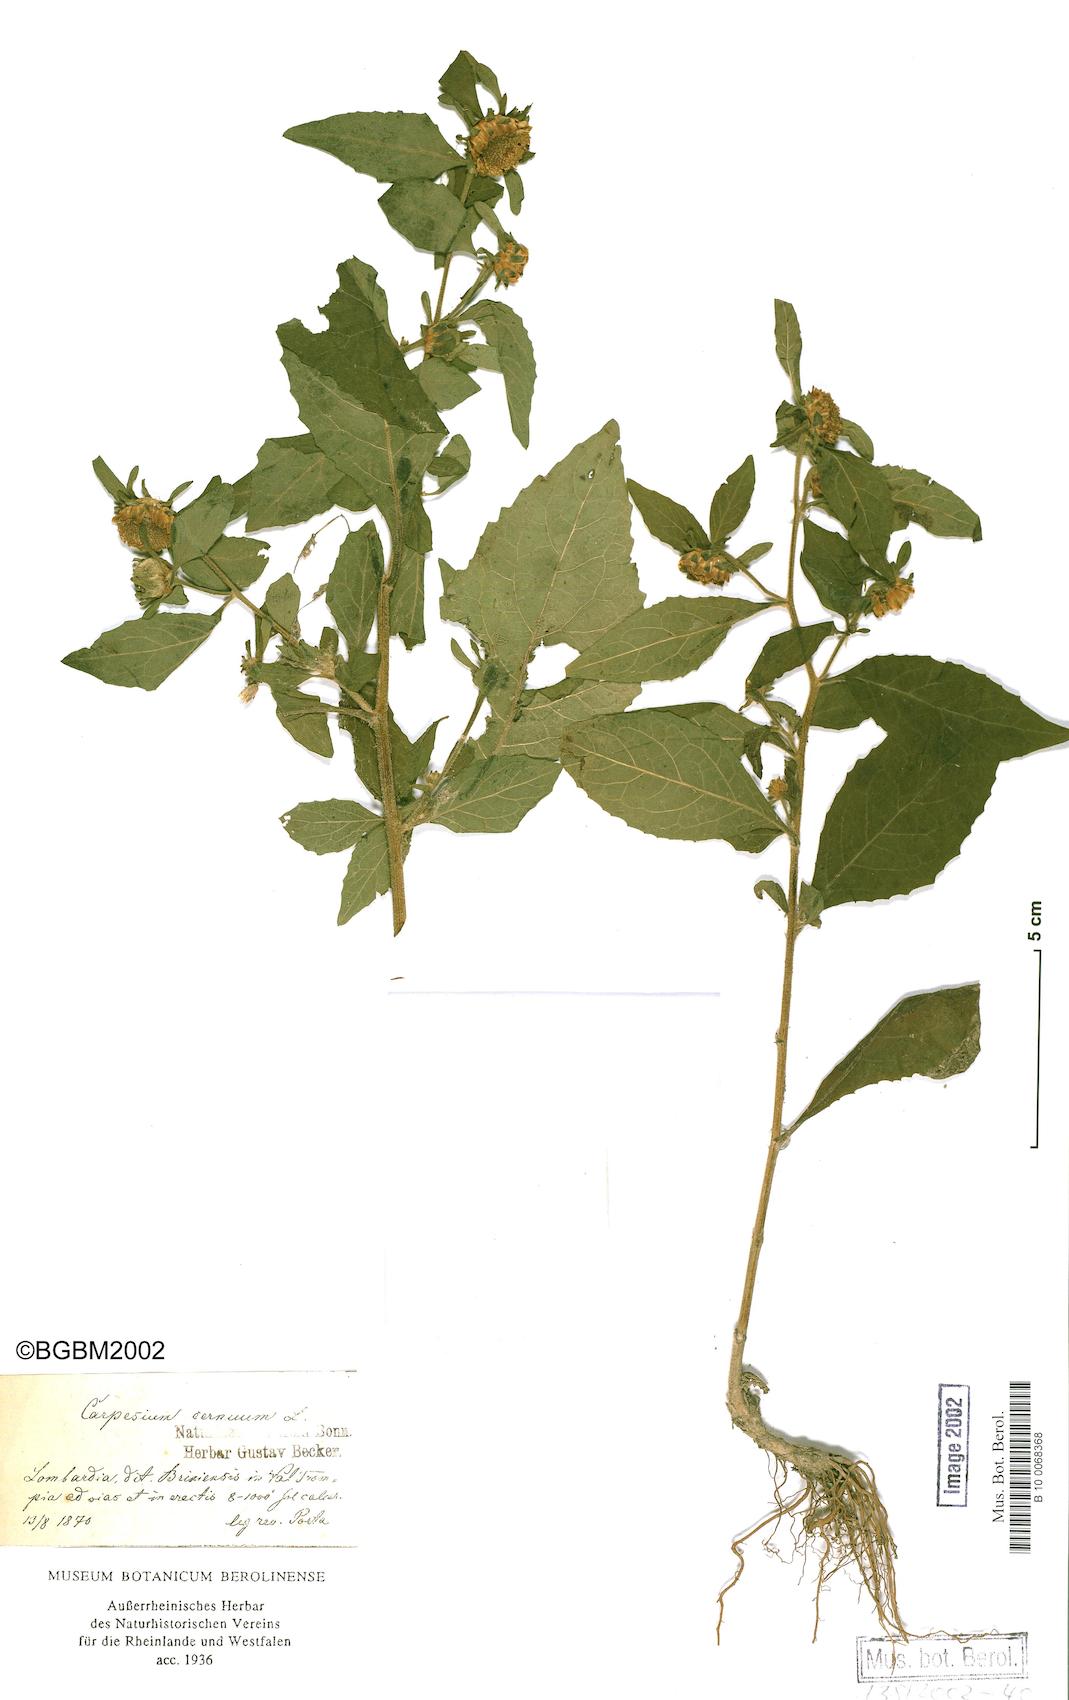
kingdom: Plantae
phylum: Tracheophyta
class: Magnoliopsida
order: Asterales
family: Asteraceae
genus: Carpesium
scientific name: Carpesium cernuum
